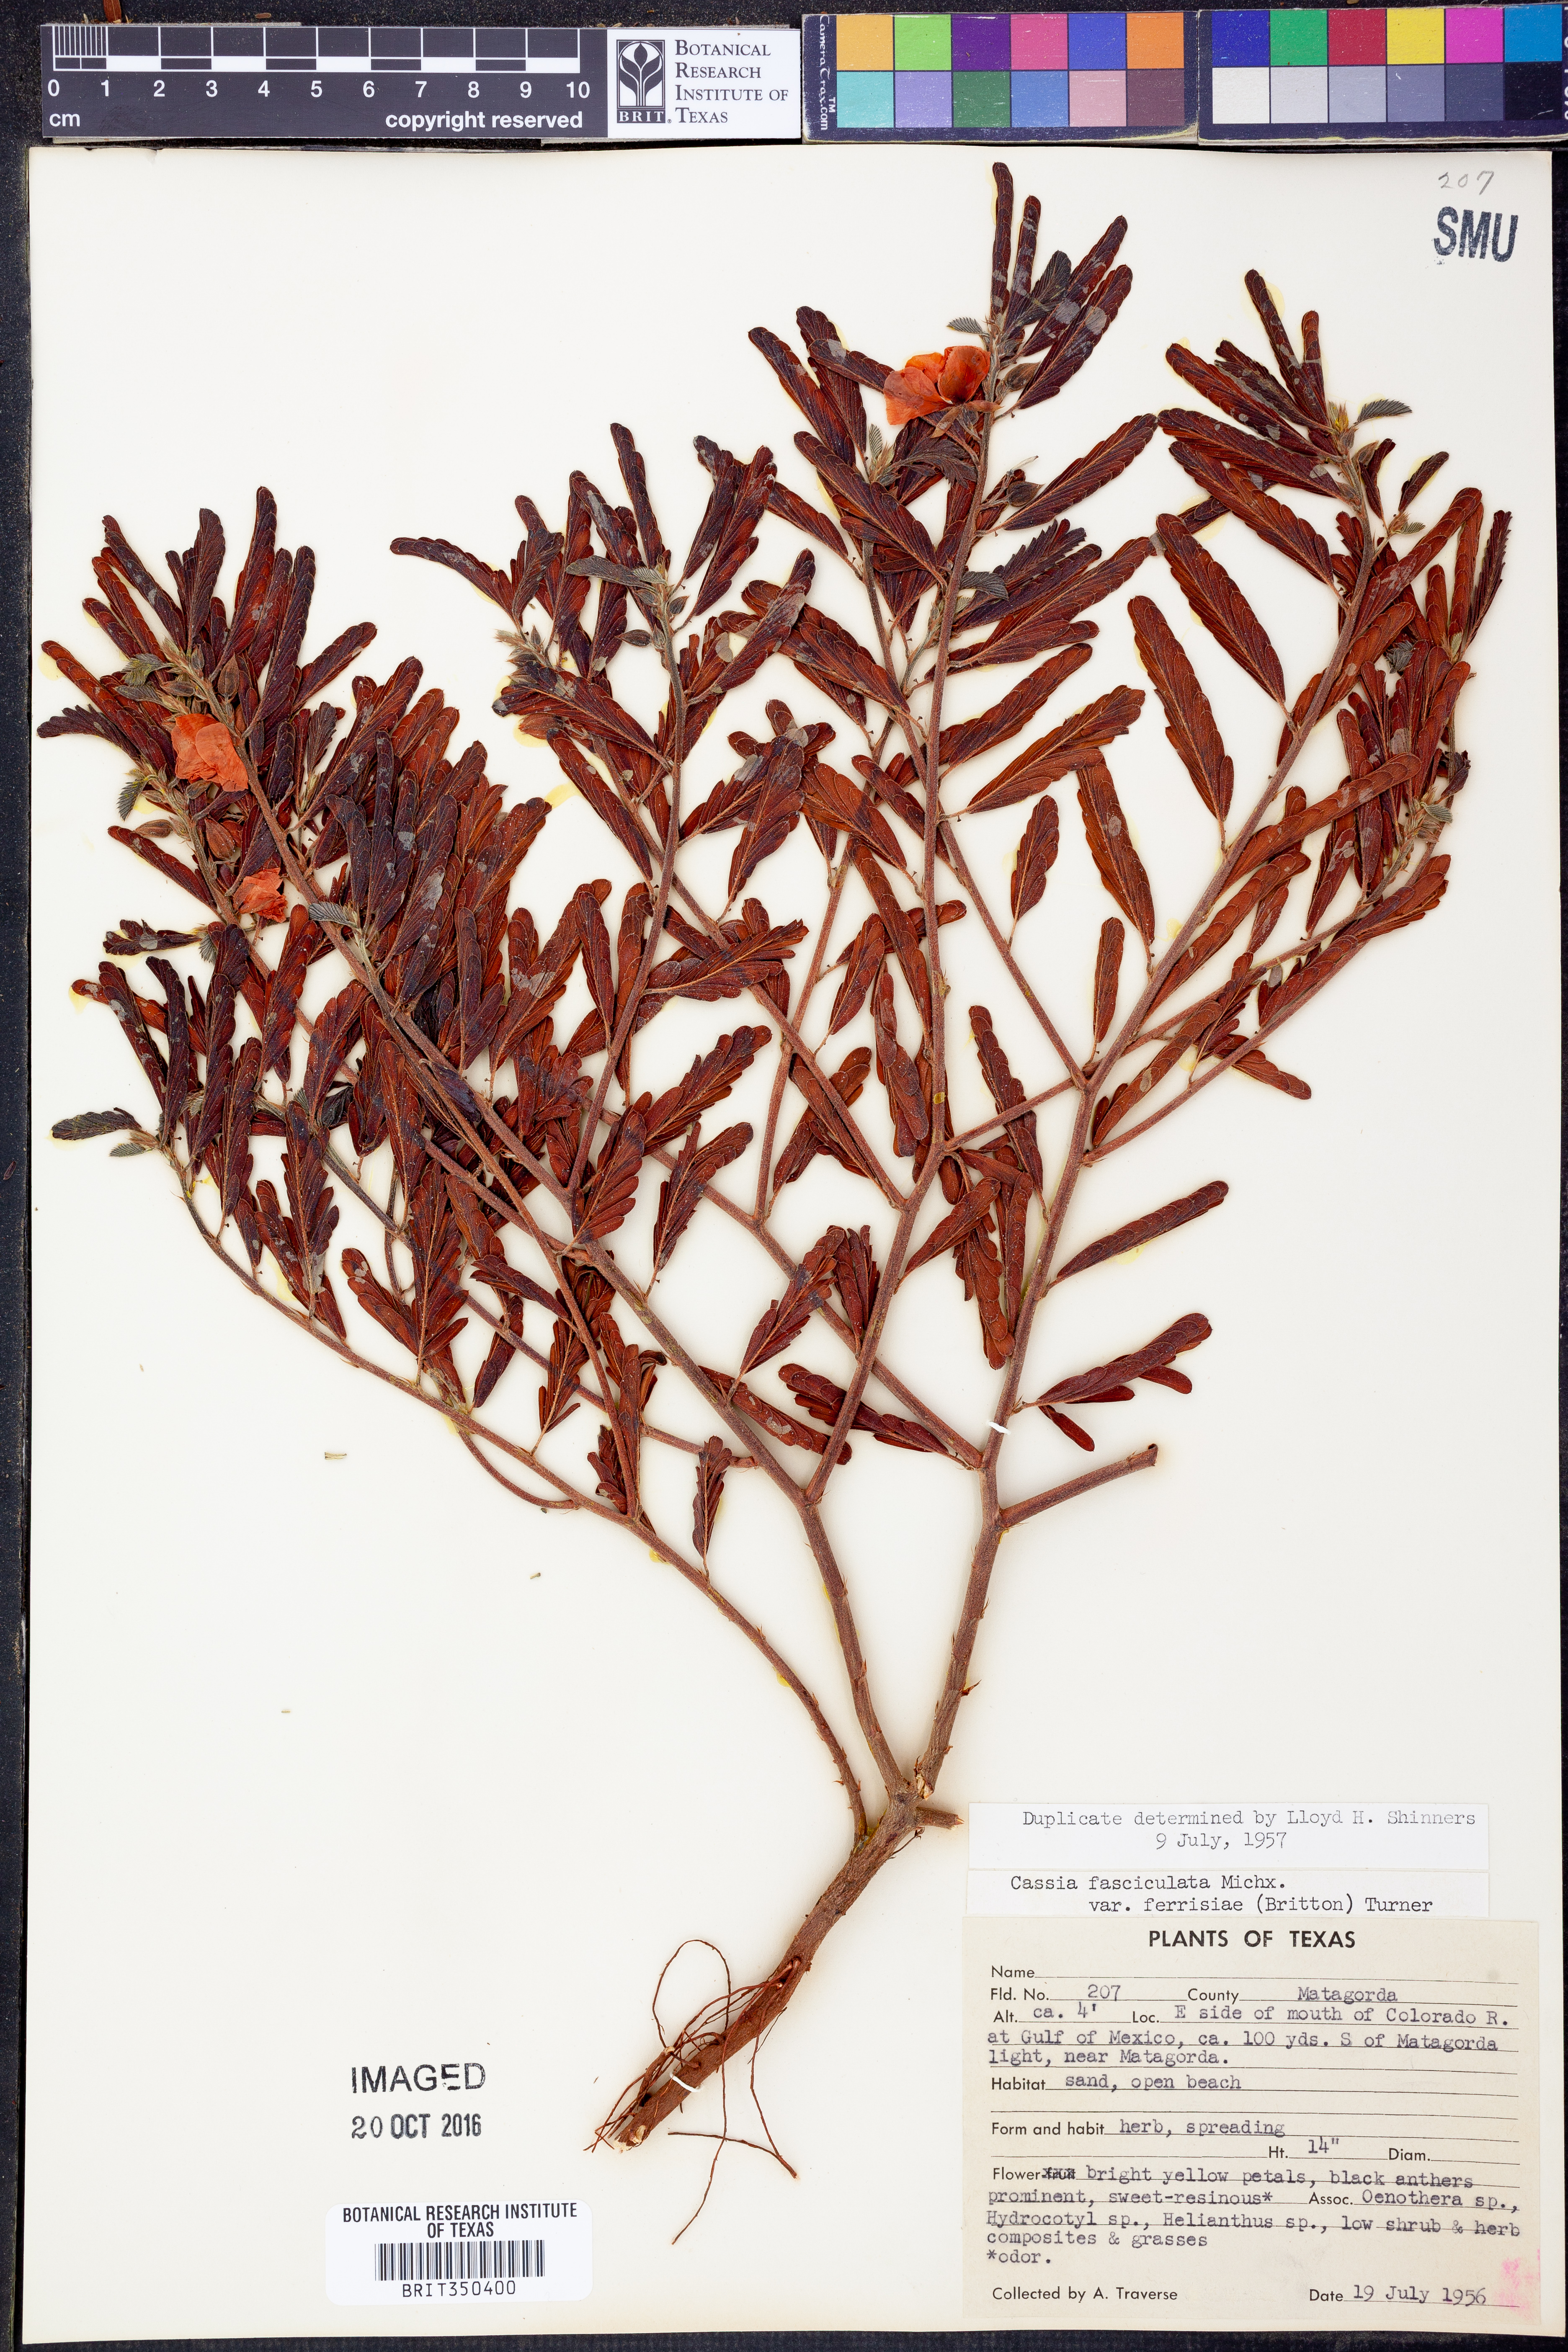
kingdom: Plantae
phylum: Tracheophyta
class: Magnoliopsida
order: Fabales
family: Fabaceae
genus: Chamaecrista
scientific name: Chamaecrista fasciculata
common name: Golden cassia
